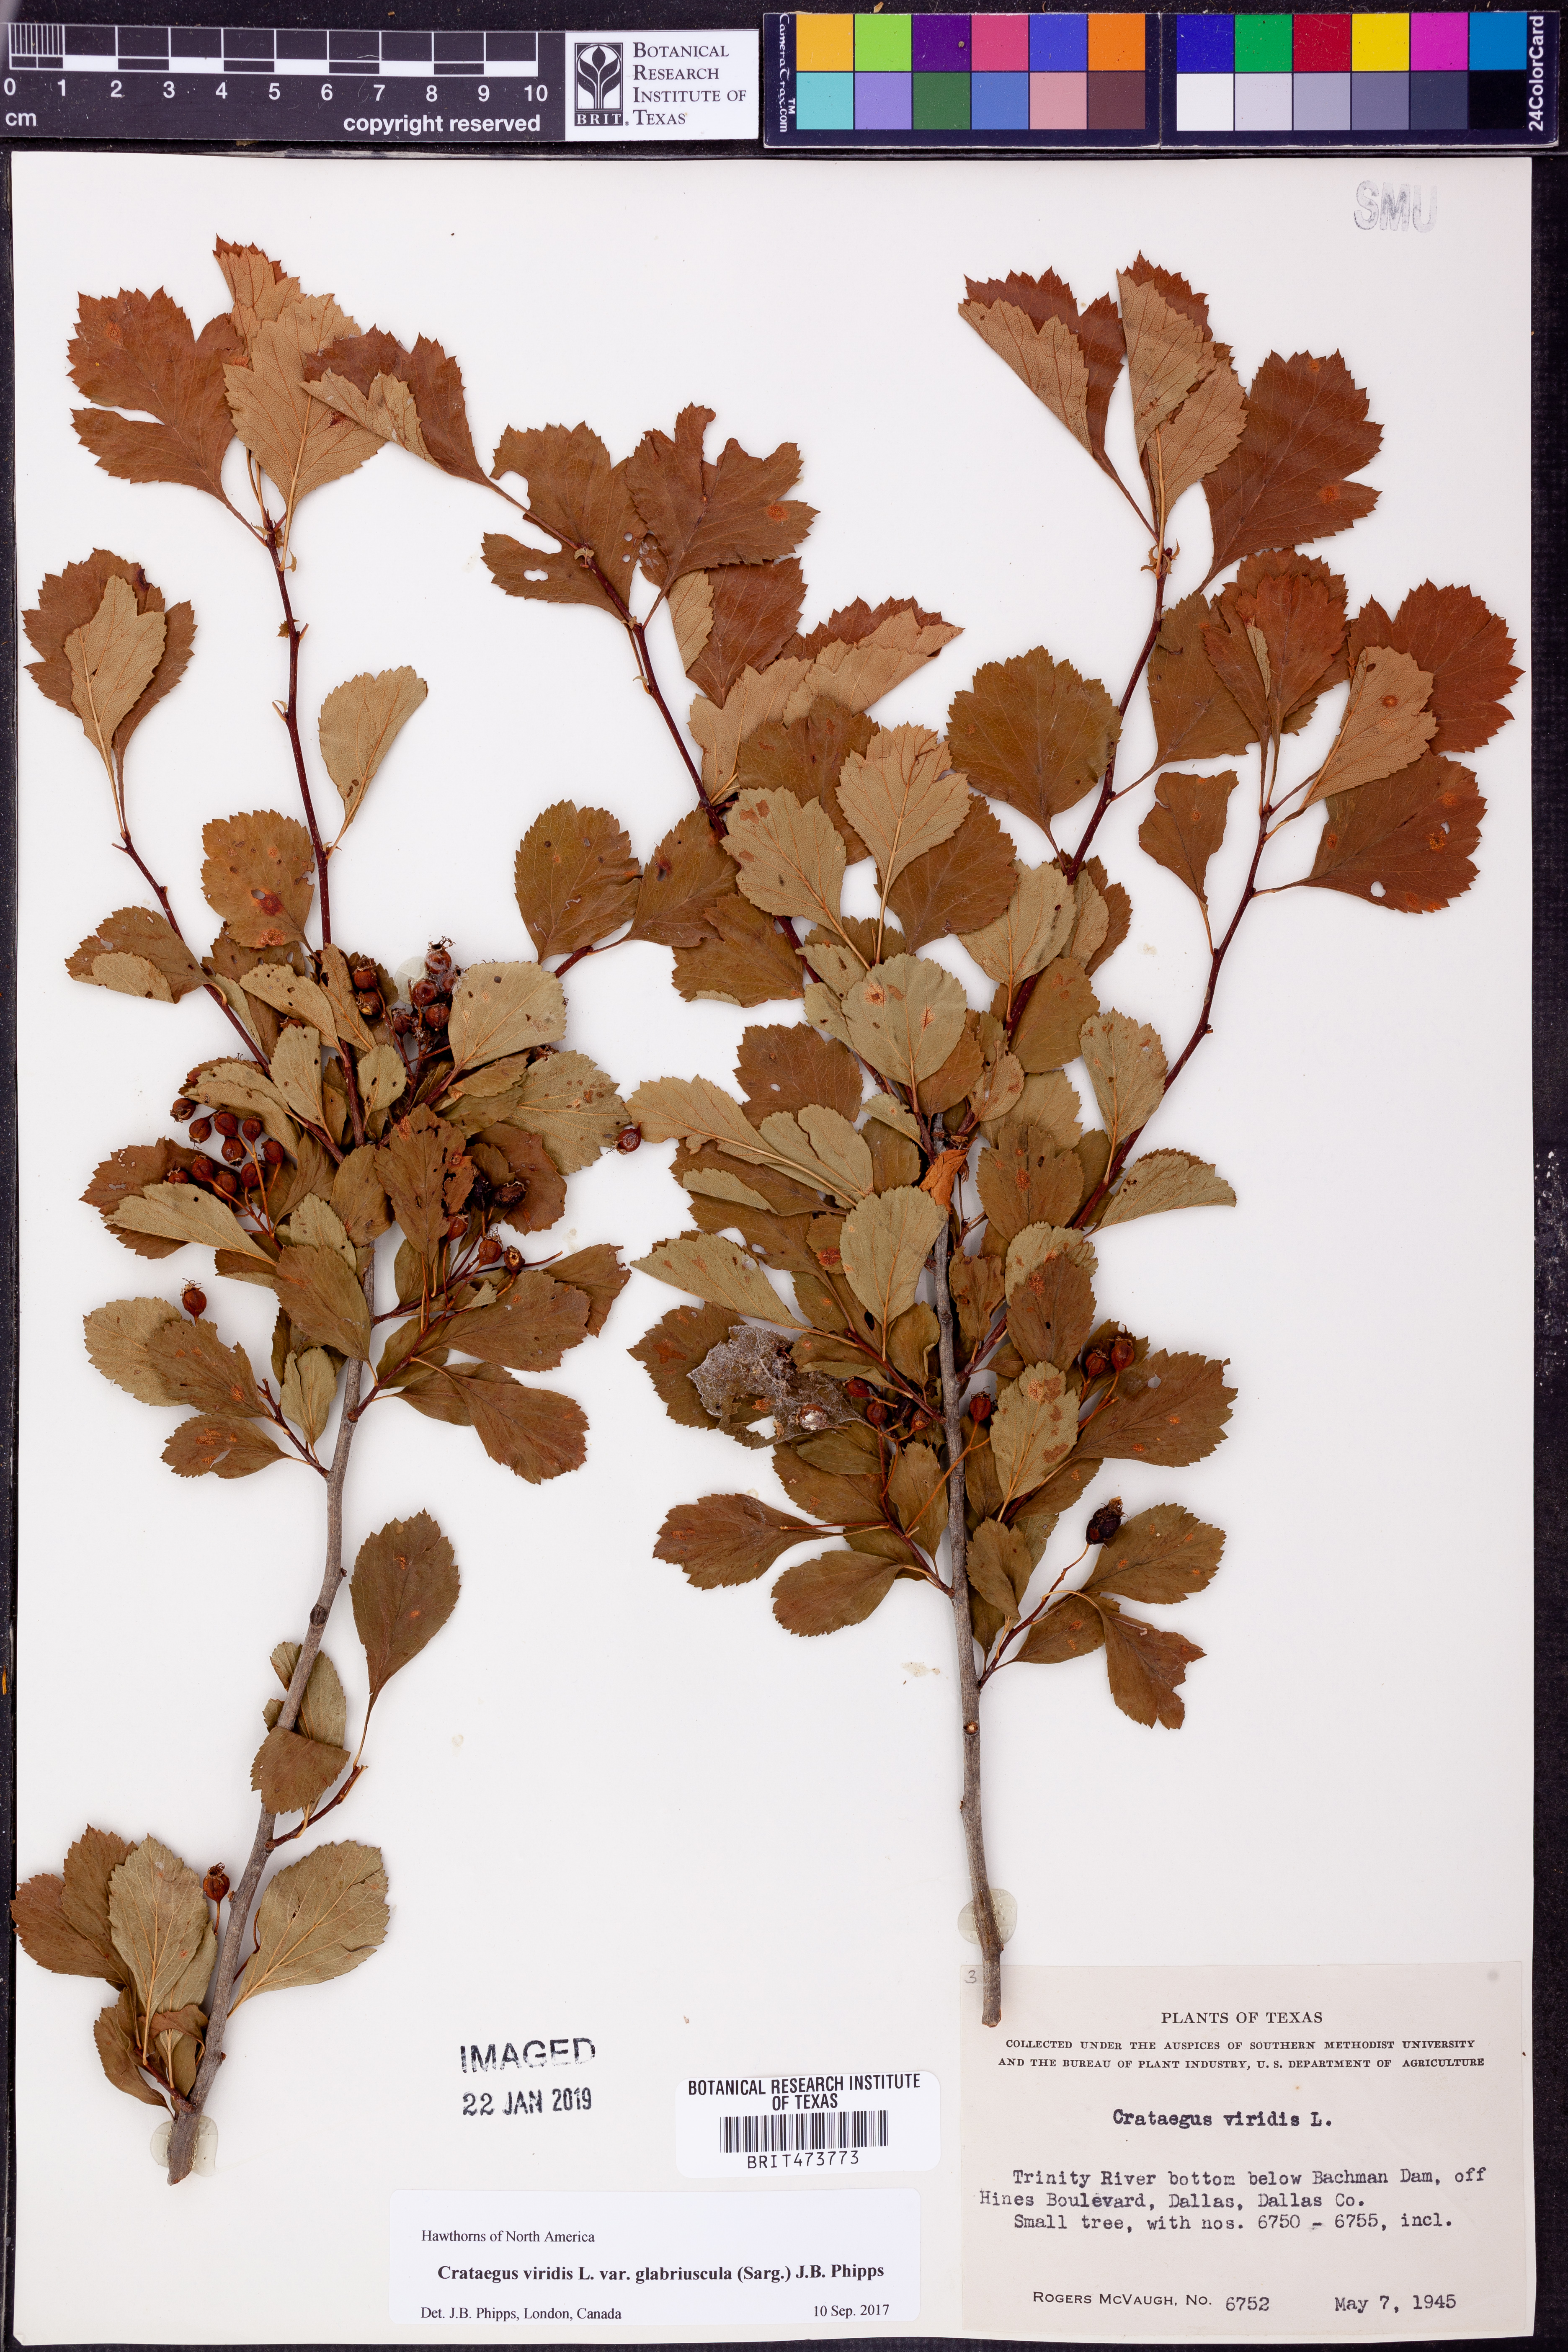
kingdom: Plantae
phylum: Tracheophyta
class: Magnoliopsida
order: Rosales
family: Rosaceae
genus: Crataegus
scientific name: Crataegus viridis
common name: Southernthorn
